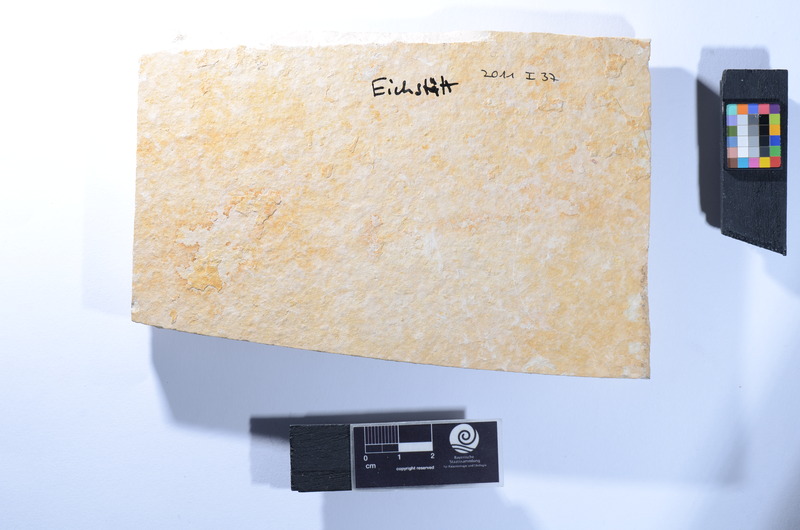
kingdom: Animalia
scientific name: Animalia
